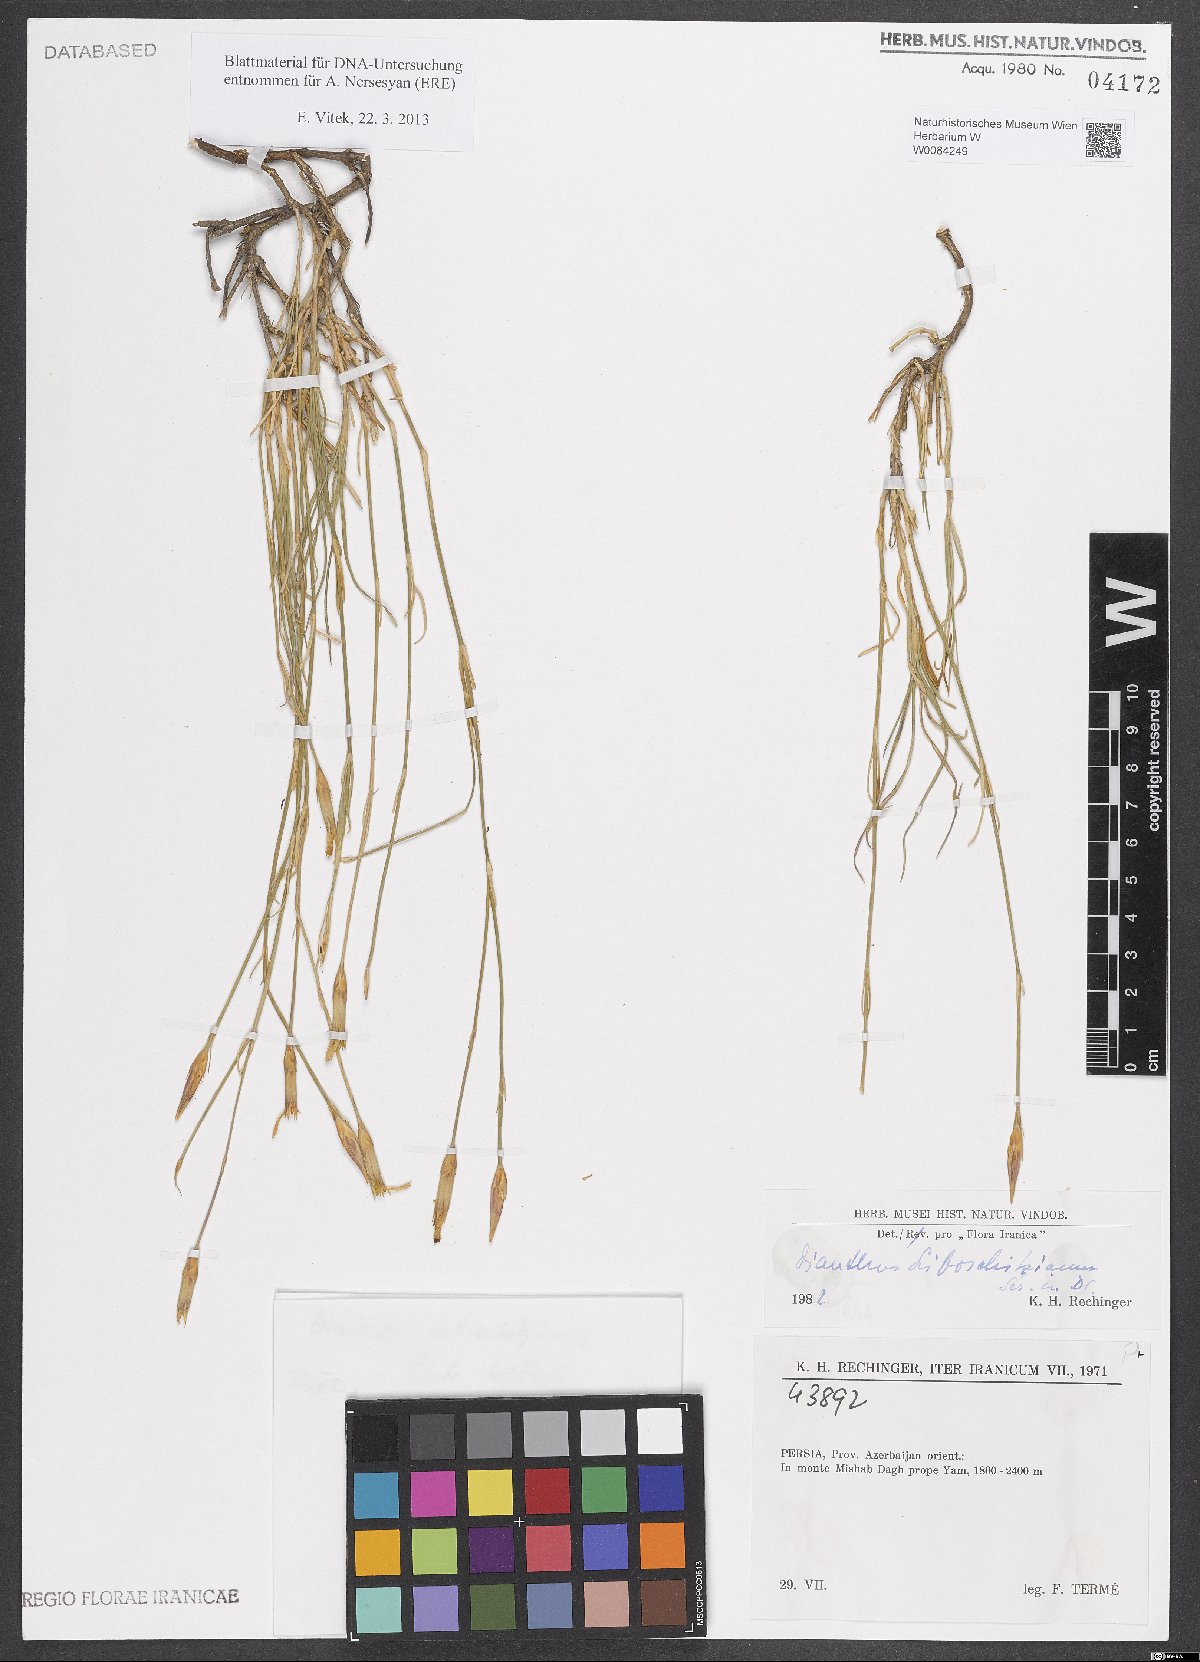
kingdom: Plantae
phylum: Tracheophyta
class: Magnoliopsida
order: Caryophyllales
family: Caryophyllaceae
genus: Dianthus
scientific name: Dianthus cretaceus
